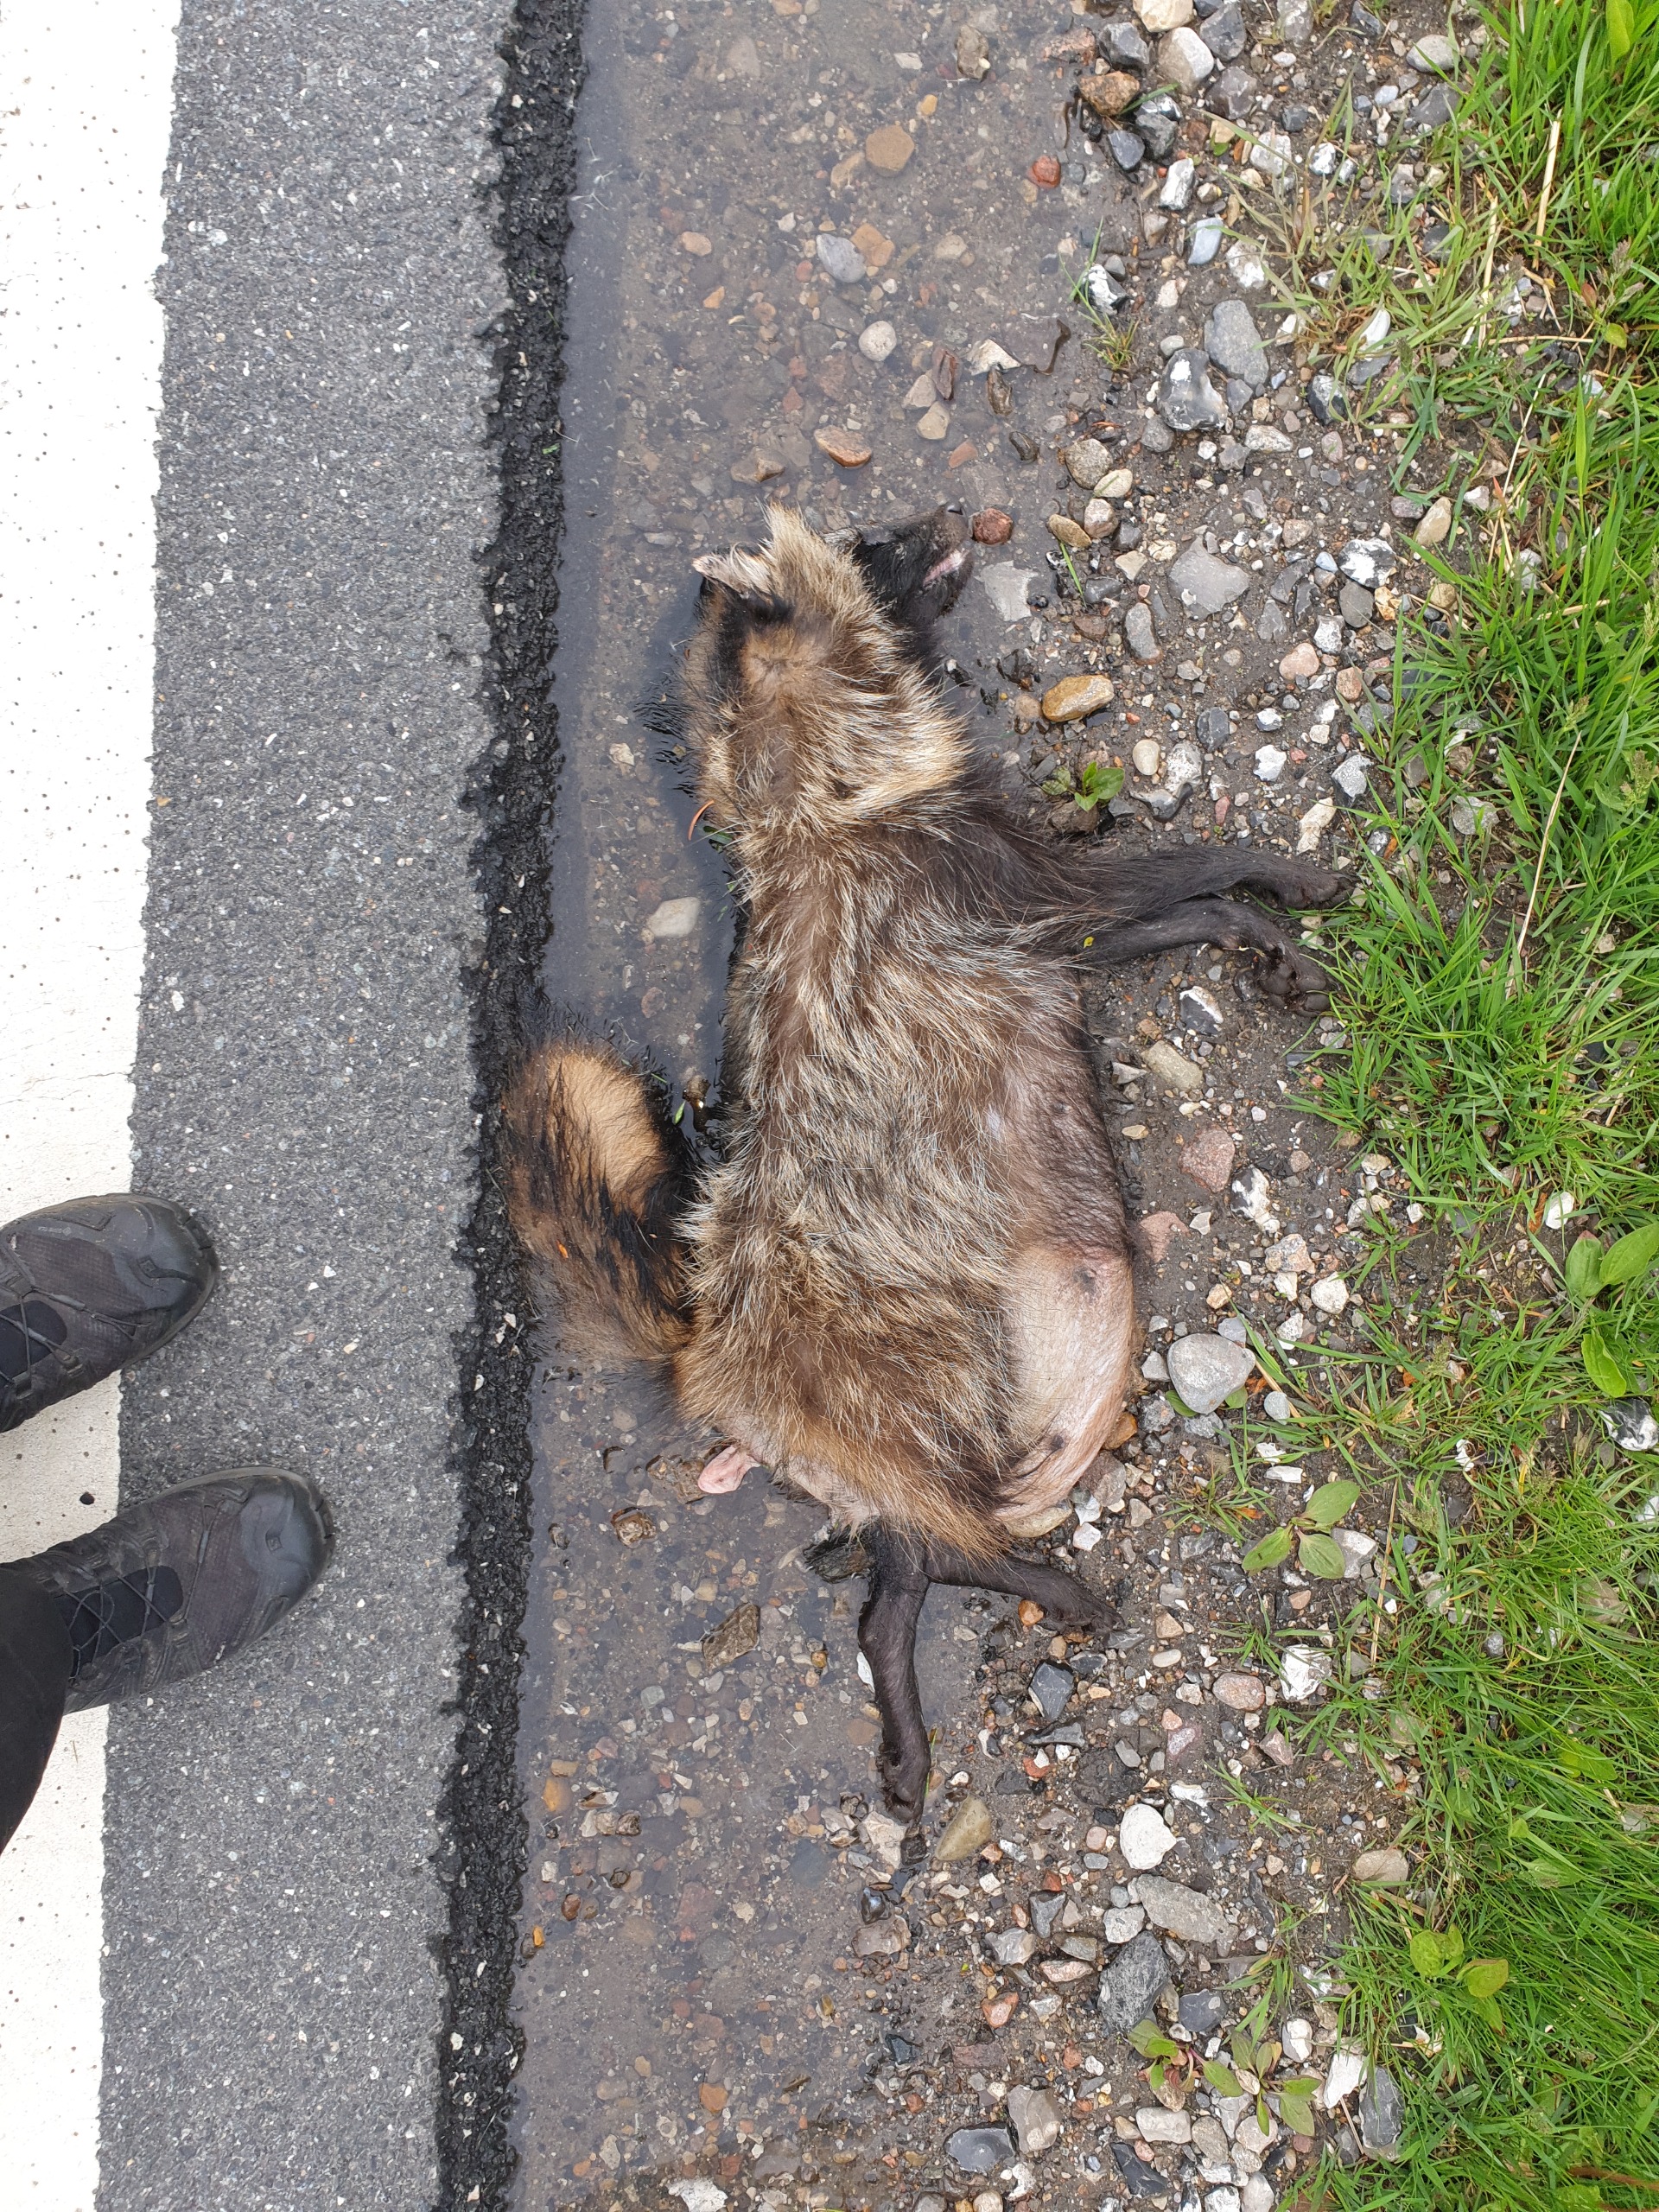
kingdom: Animalia
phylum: Chordata
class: Mammalia
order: Carnivora
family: Canidae
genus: Nyctereutes
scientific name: Nyctereutes procyonoides
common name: Mårhund
